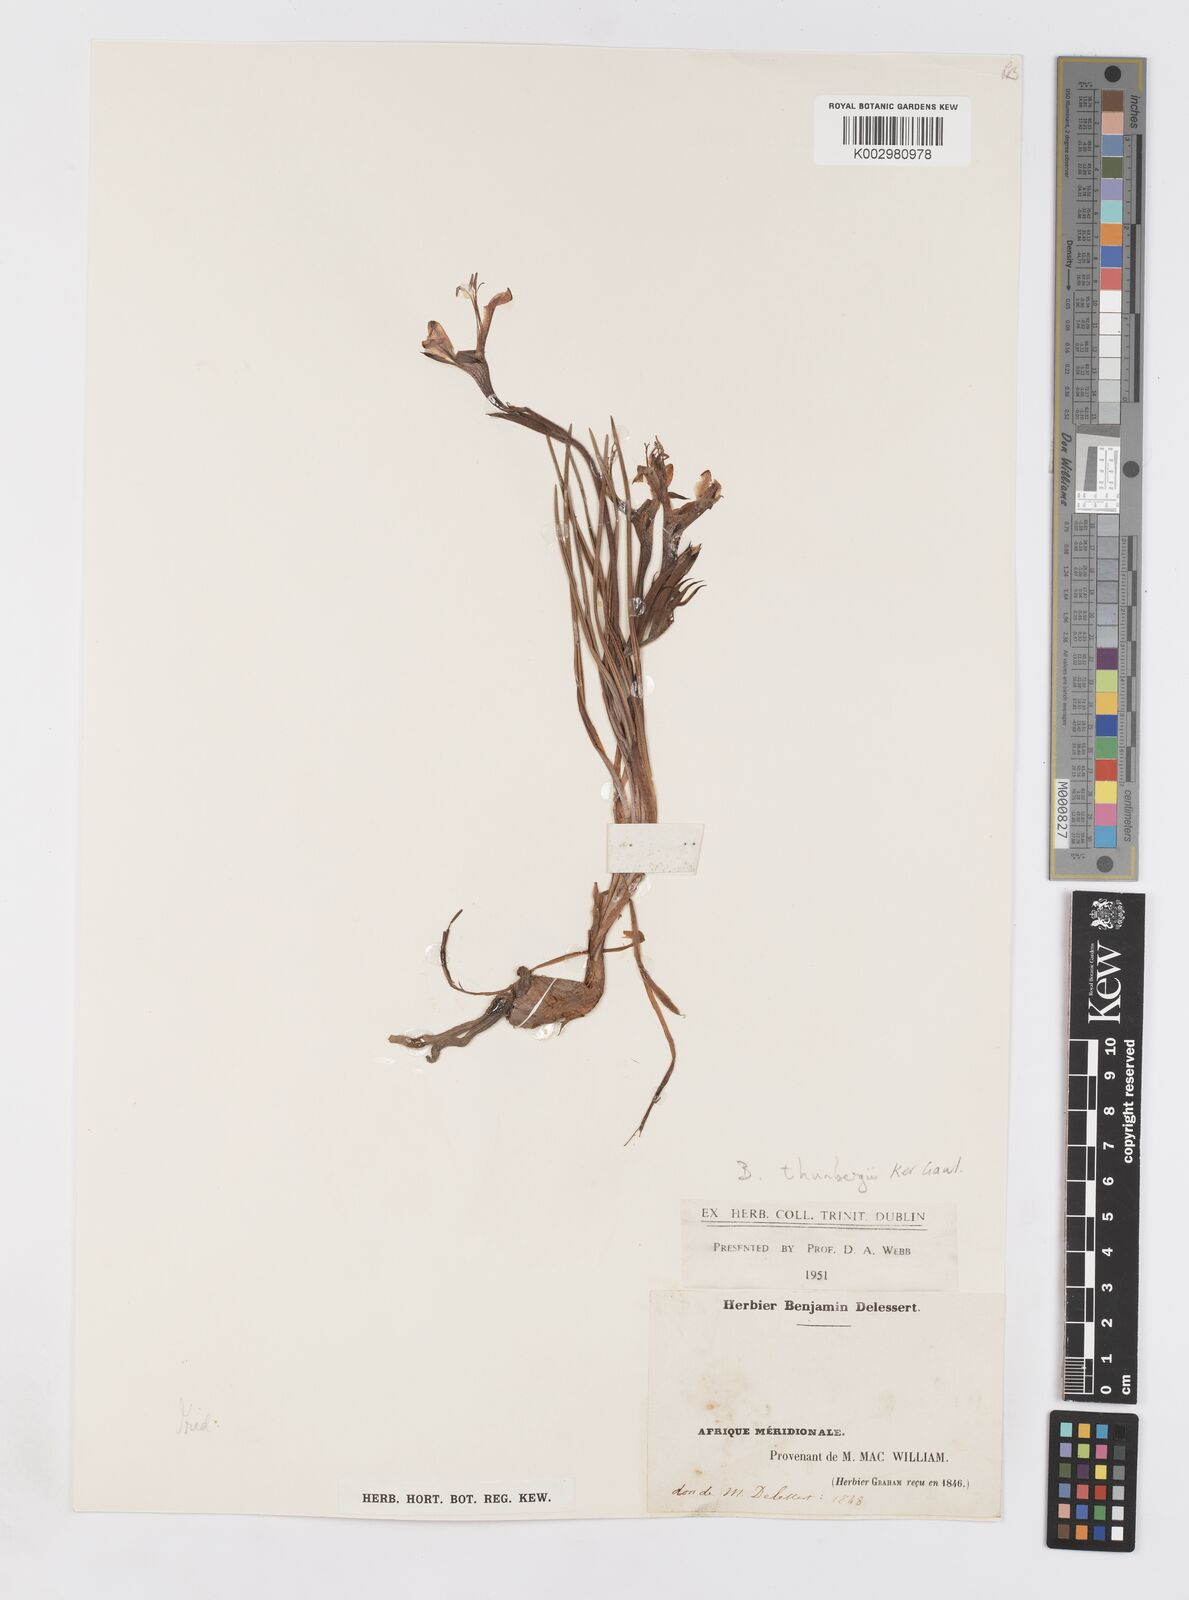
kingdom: Plantae
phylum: Tracheophyta
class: Liliopsida
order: Asparagales
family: Iridaceae
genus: Babiana
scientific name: Babiana
